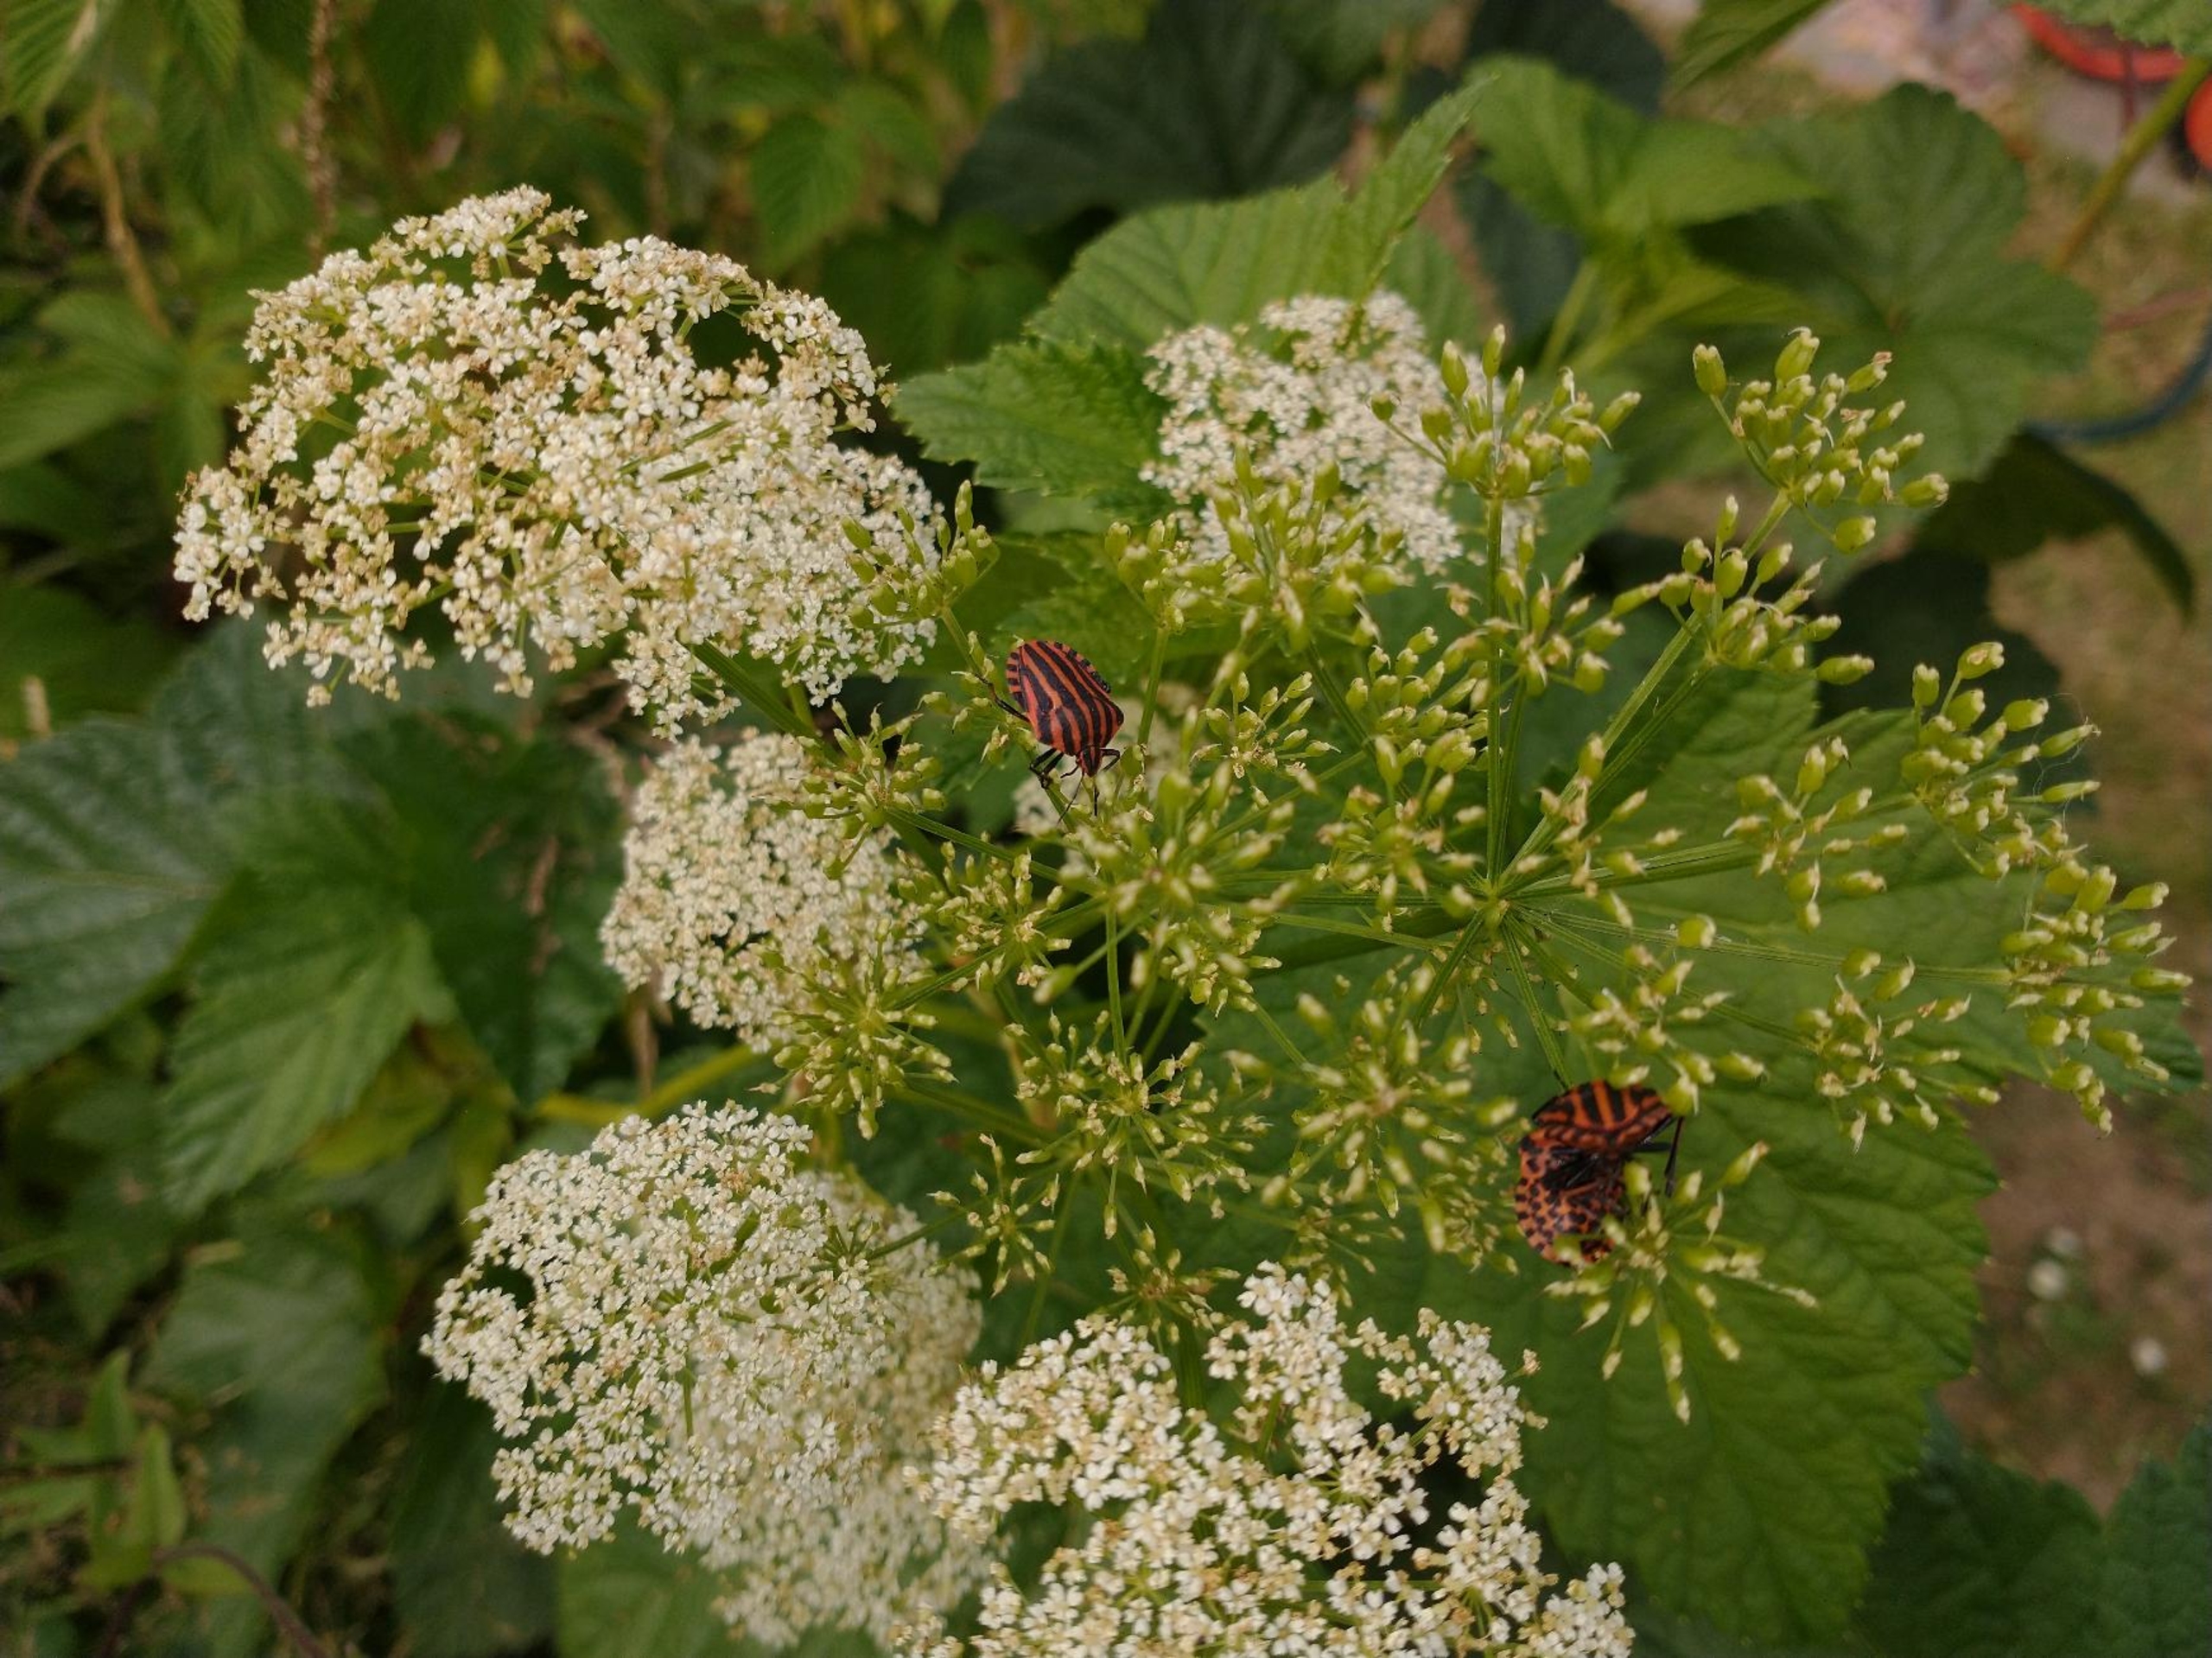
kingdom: Animalia
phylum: Arthropoda
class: Insecta
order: Hemiptera
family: Pentatomidae
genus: Graphosoma
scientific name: Graphosoma italicum
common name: Stribetæge
